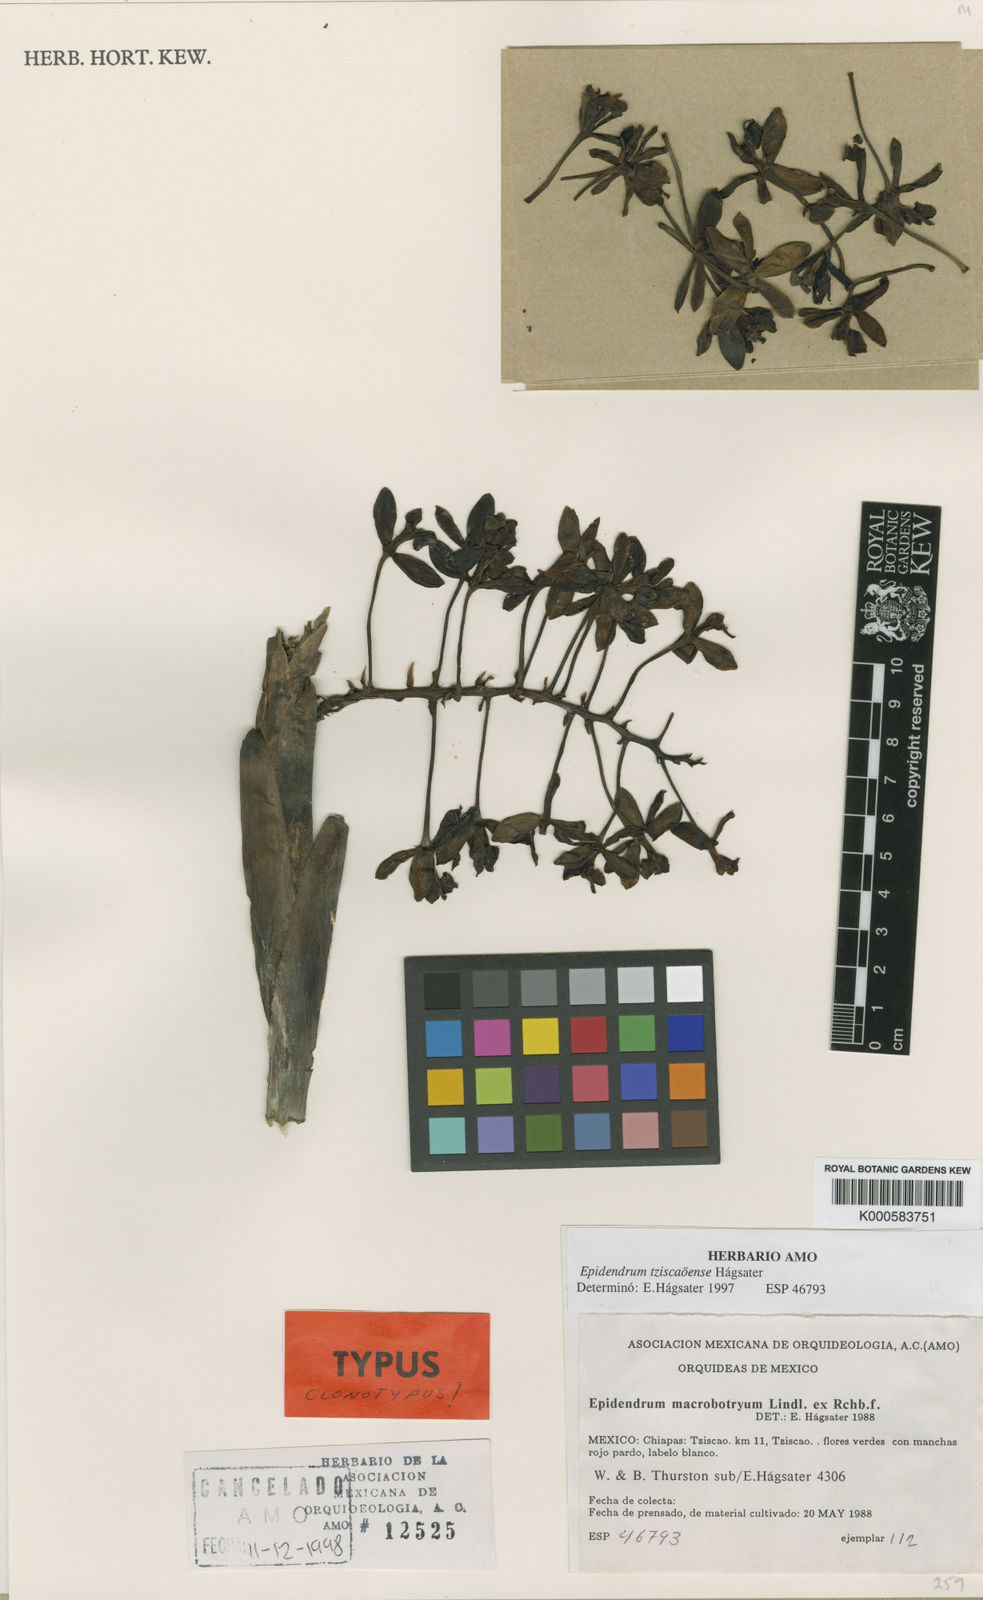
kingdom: Plantae
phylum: Tracheophyta
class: Liliopsida
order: Asparagales
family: Orchidaceae
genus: Epidendrum
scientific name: Epidendrum
